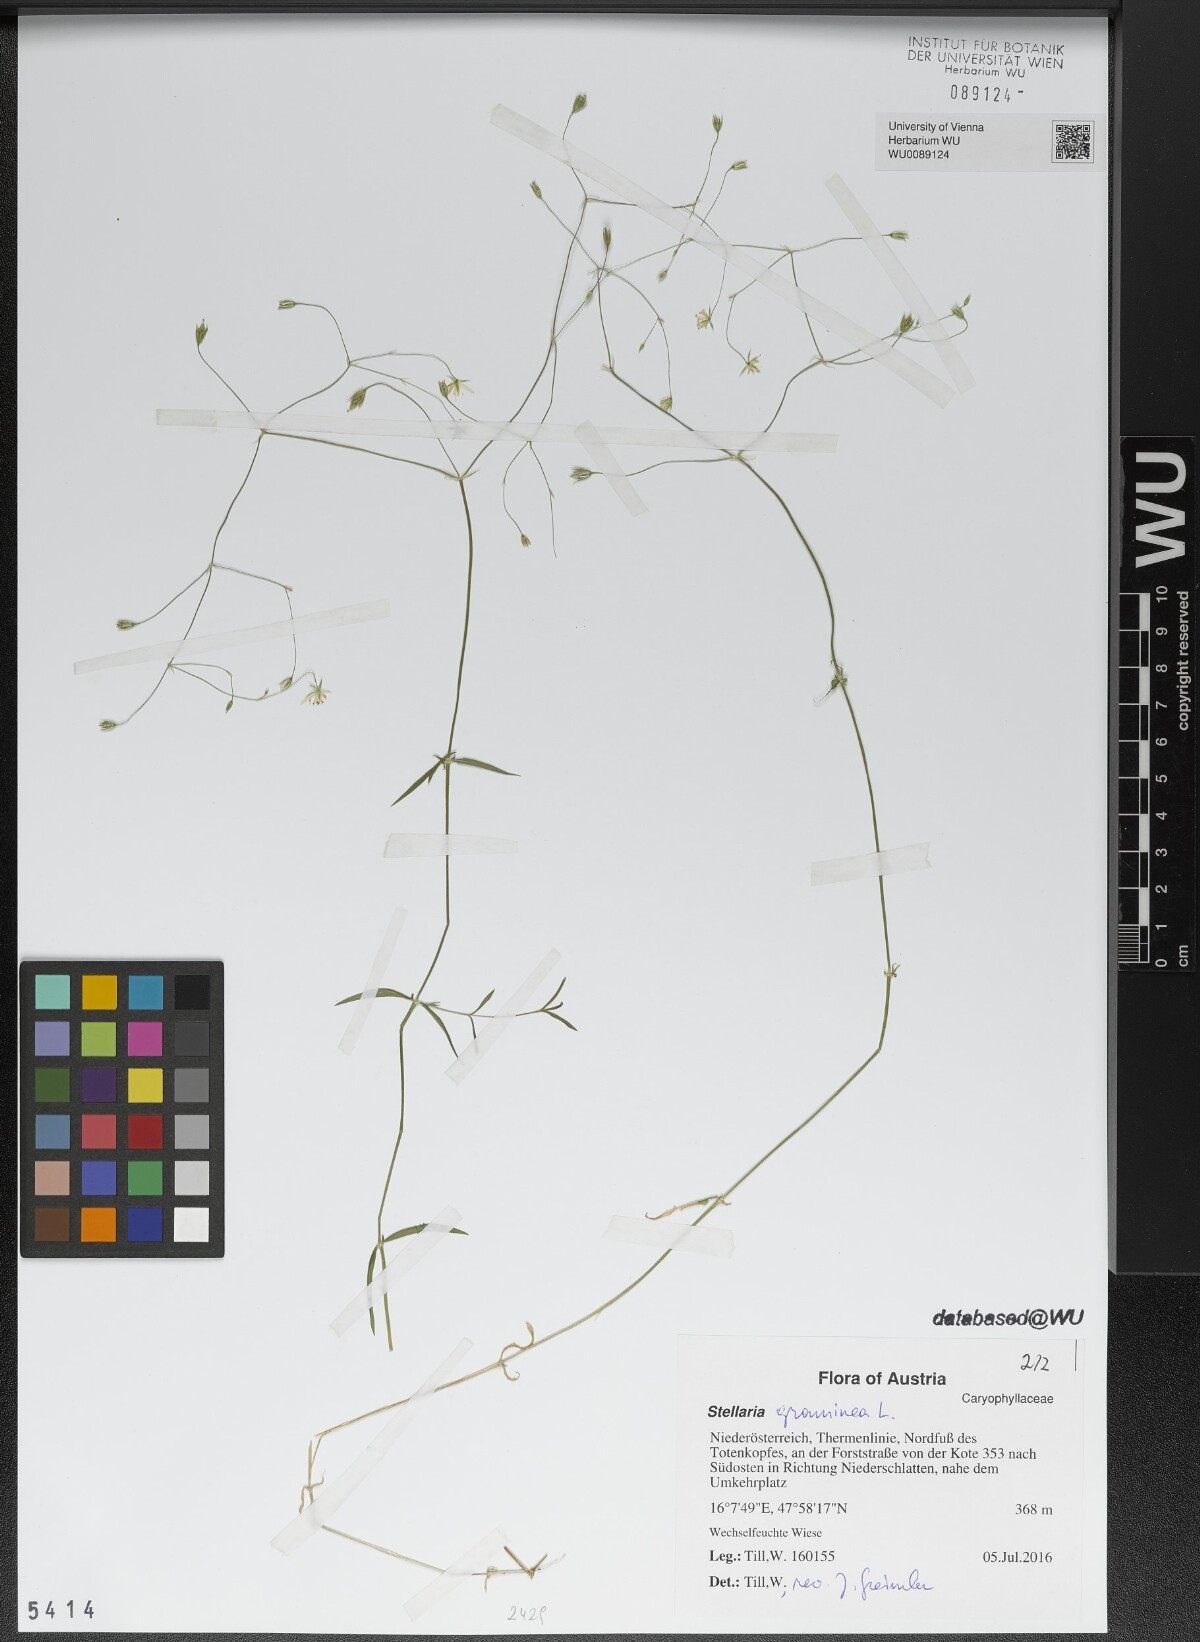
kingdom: Plantae
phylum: Tracheophyta
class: Magnoliopsida
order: Caryophyllales
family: Caryophyllaceae
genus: Stellaria
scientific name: Stellaria graminea
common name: Grass-like starwort
